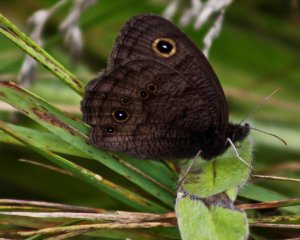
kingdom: Animalia
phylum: Arthropoda
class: Insecta
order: Lepidoptera
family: Nymphalidae
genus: Cercyonis
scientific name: Cercyonis pegala
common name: Common Wood-Nymph
